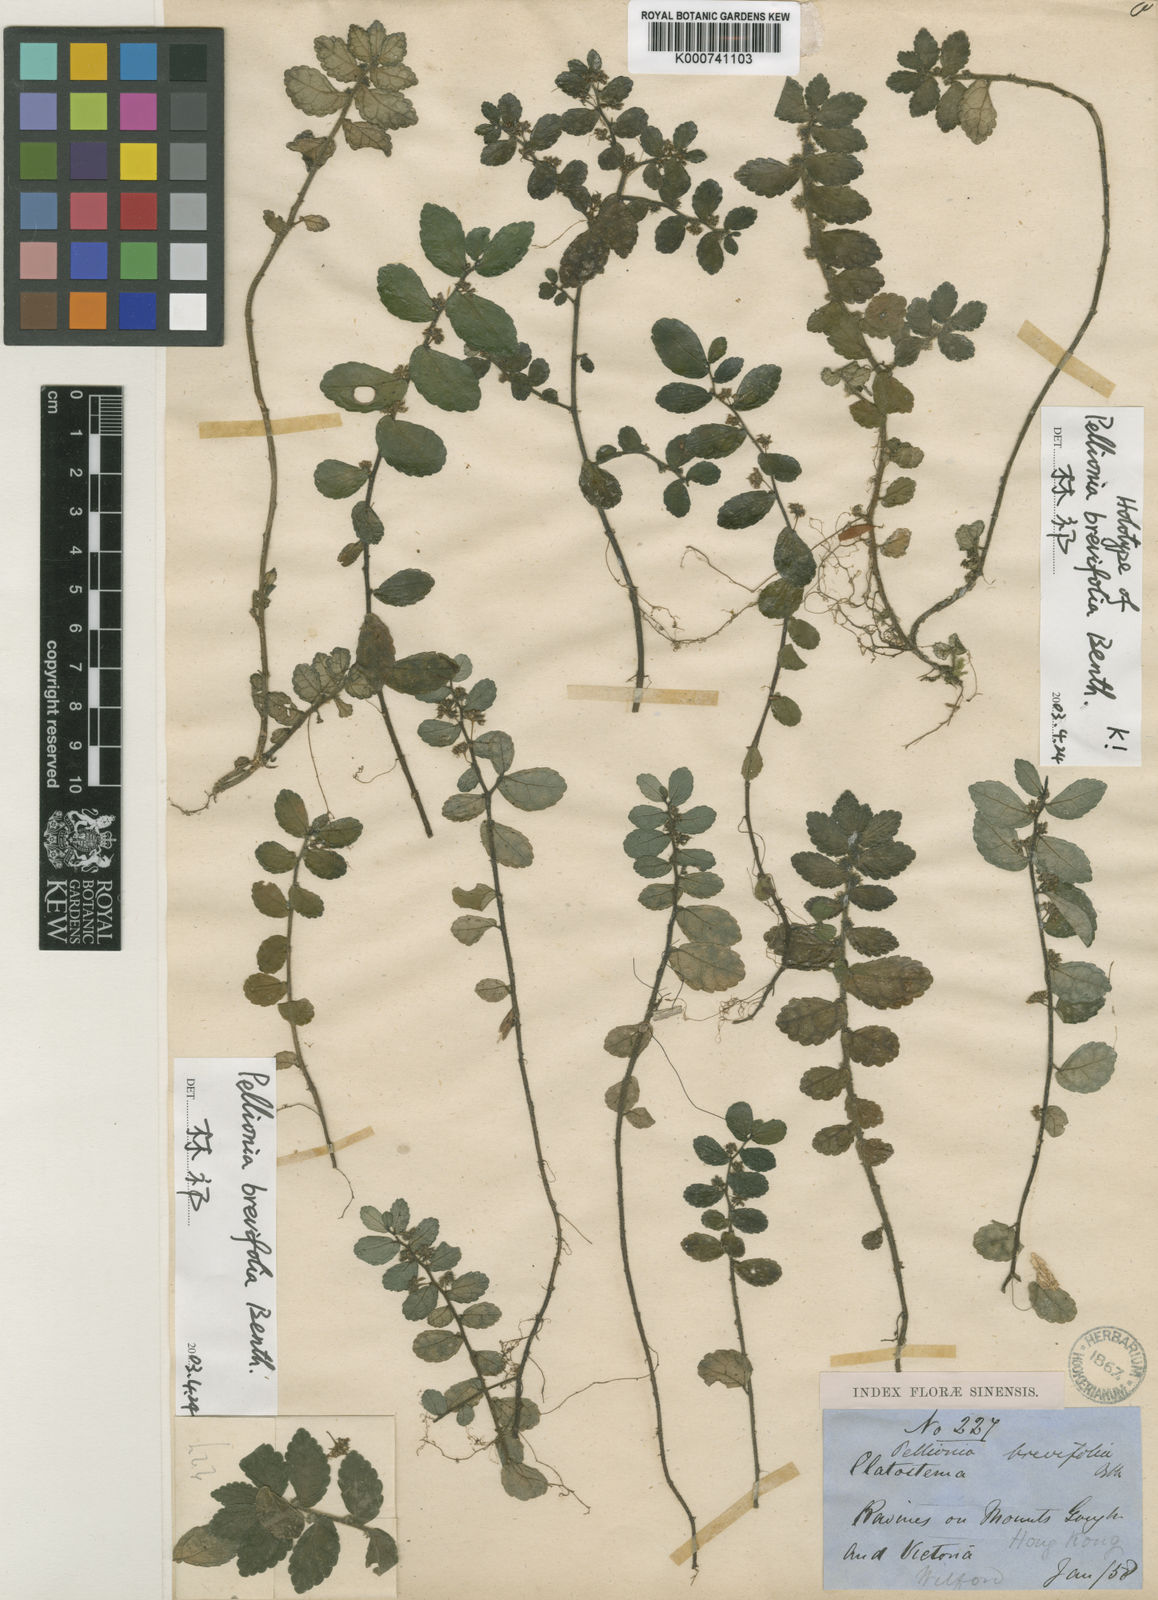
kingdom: Plantae
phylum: Tracheophyta
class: Magnoliopsida
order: Rosales
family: Urticaceae
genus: Elatostema
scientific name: Elatostema brevifolium
